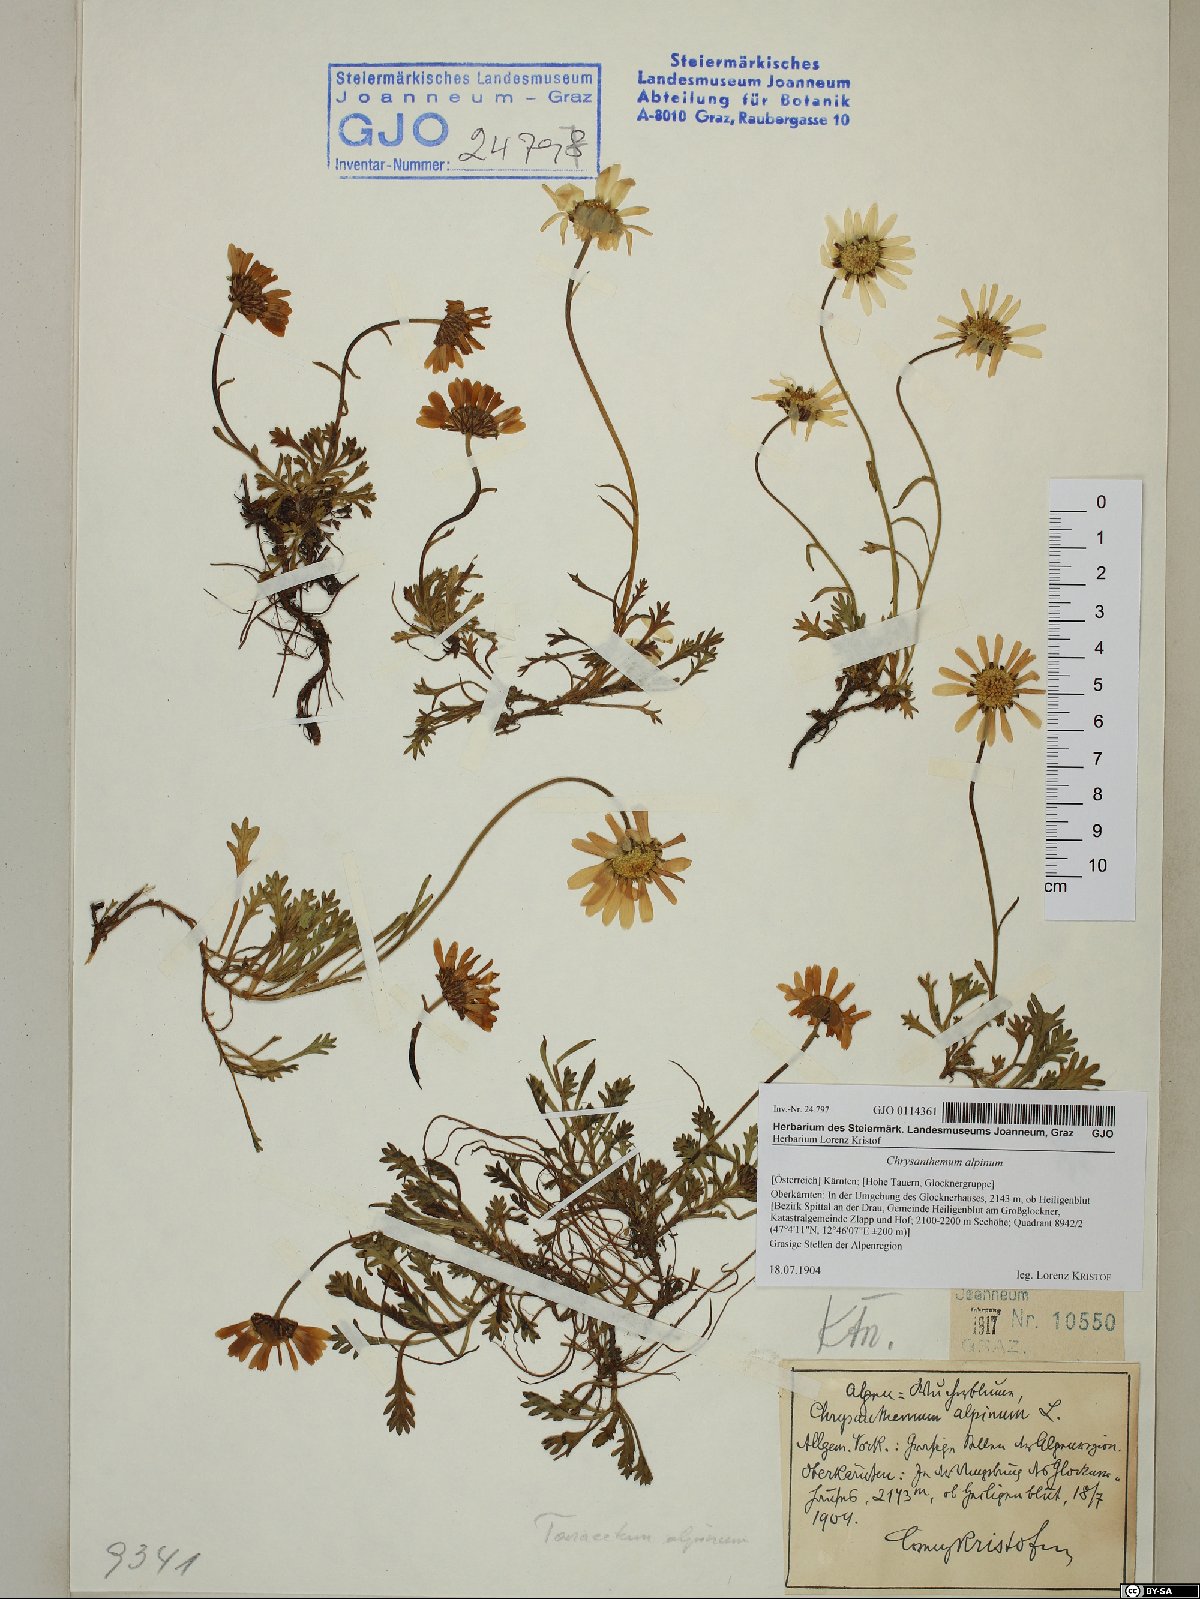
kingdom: Plantae
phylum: Tracheophyta
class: Magnoliopsida
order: Asterales
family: Asteraceae
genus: Leucanthemopsis
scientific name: Leucanthemopsis alpina
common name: Alpine moon daisy
